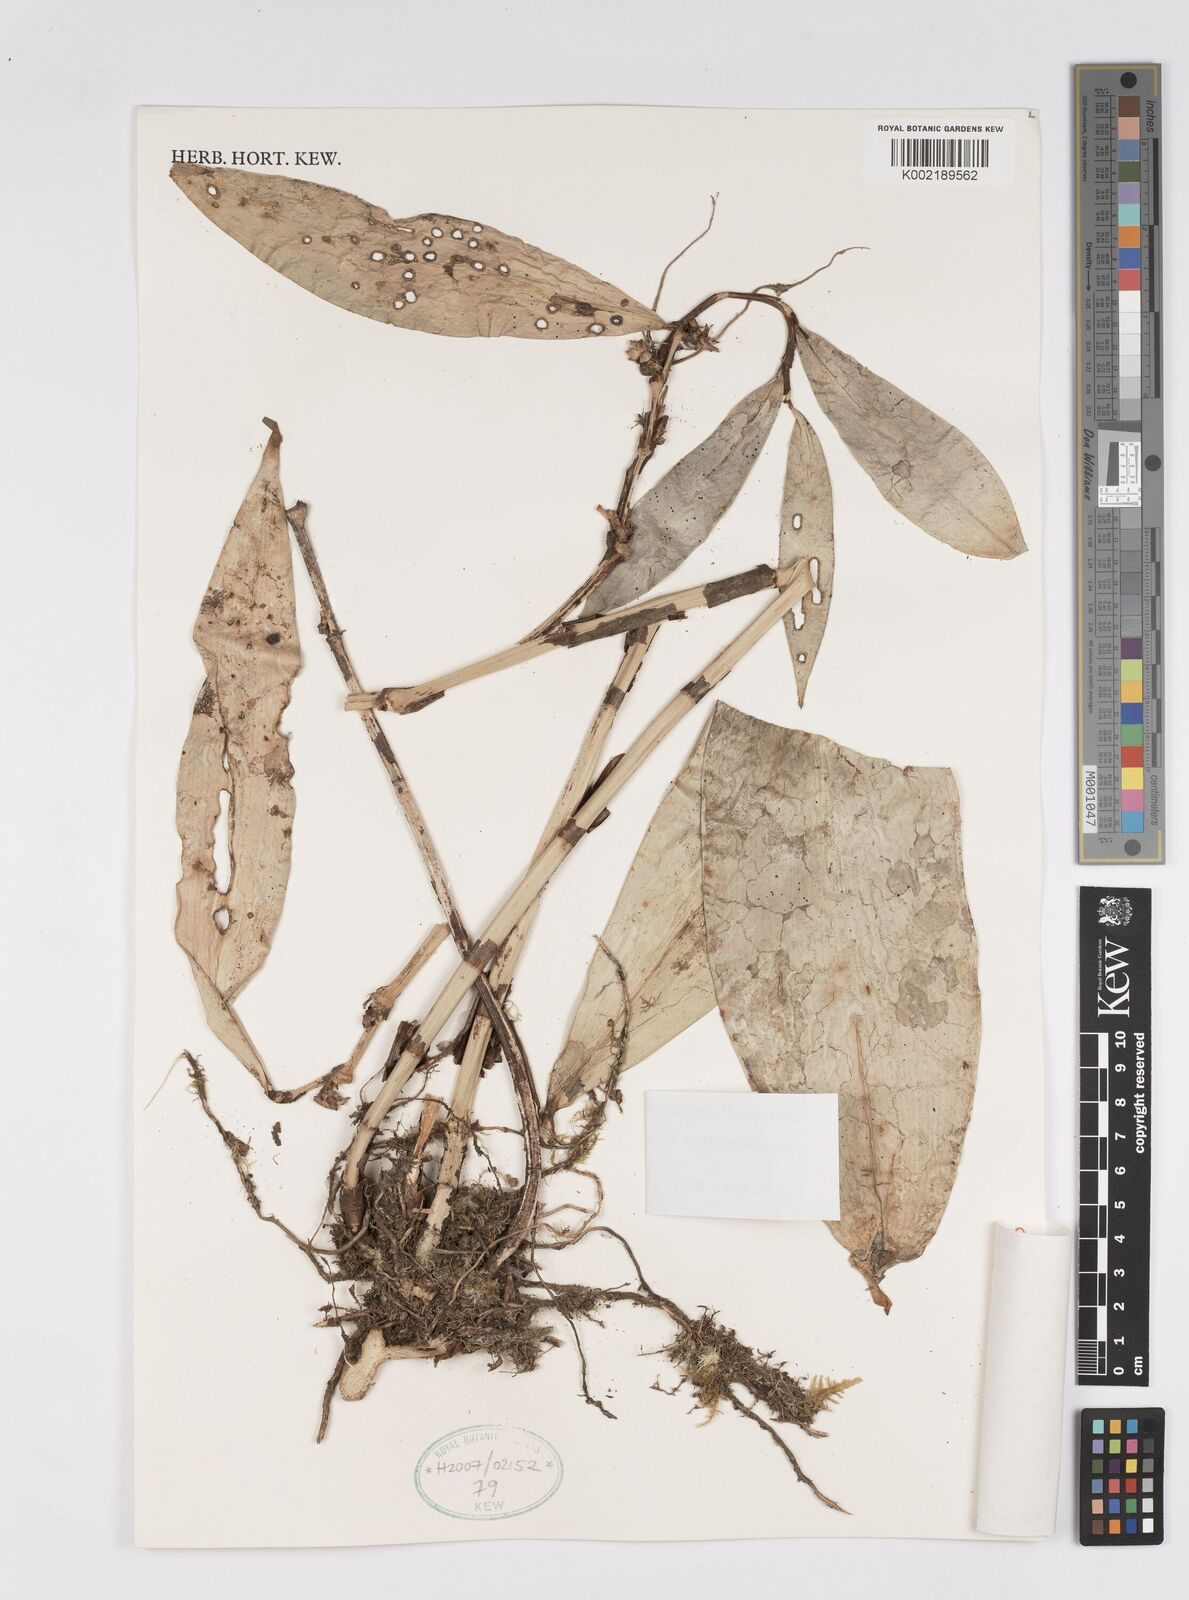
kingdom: Plantae
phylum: Tracheophyta
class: Liliopsida
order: Zingiberales
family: Costaceae
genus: Costus
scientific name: Costus lilaceus
